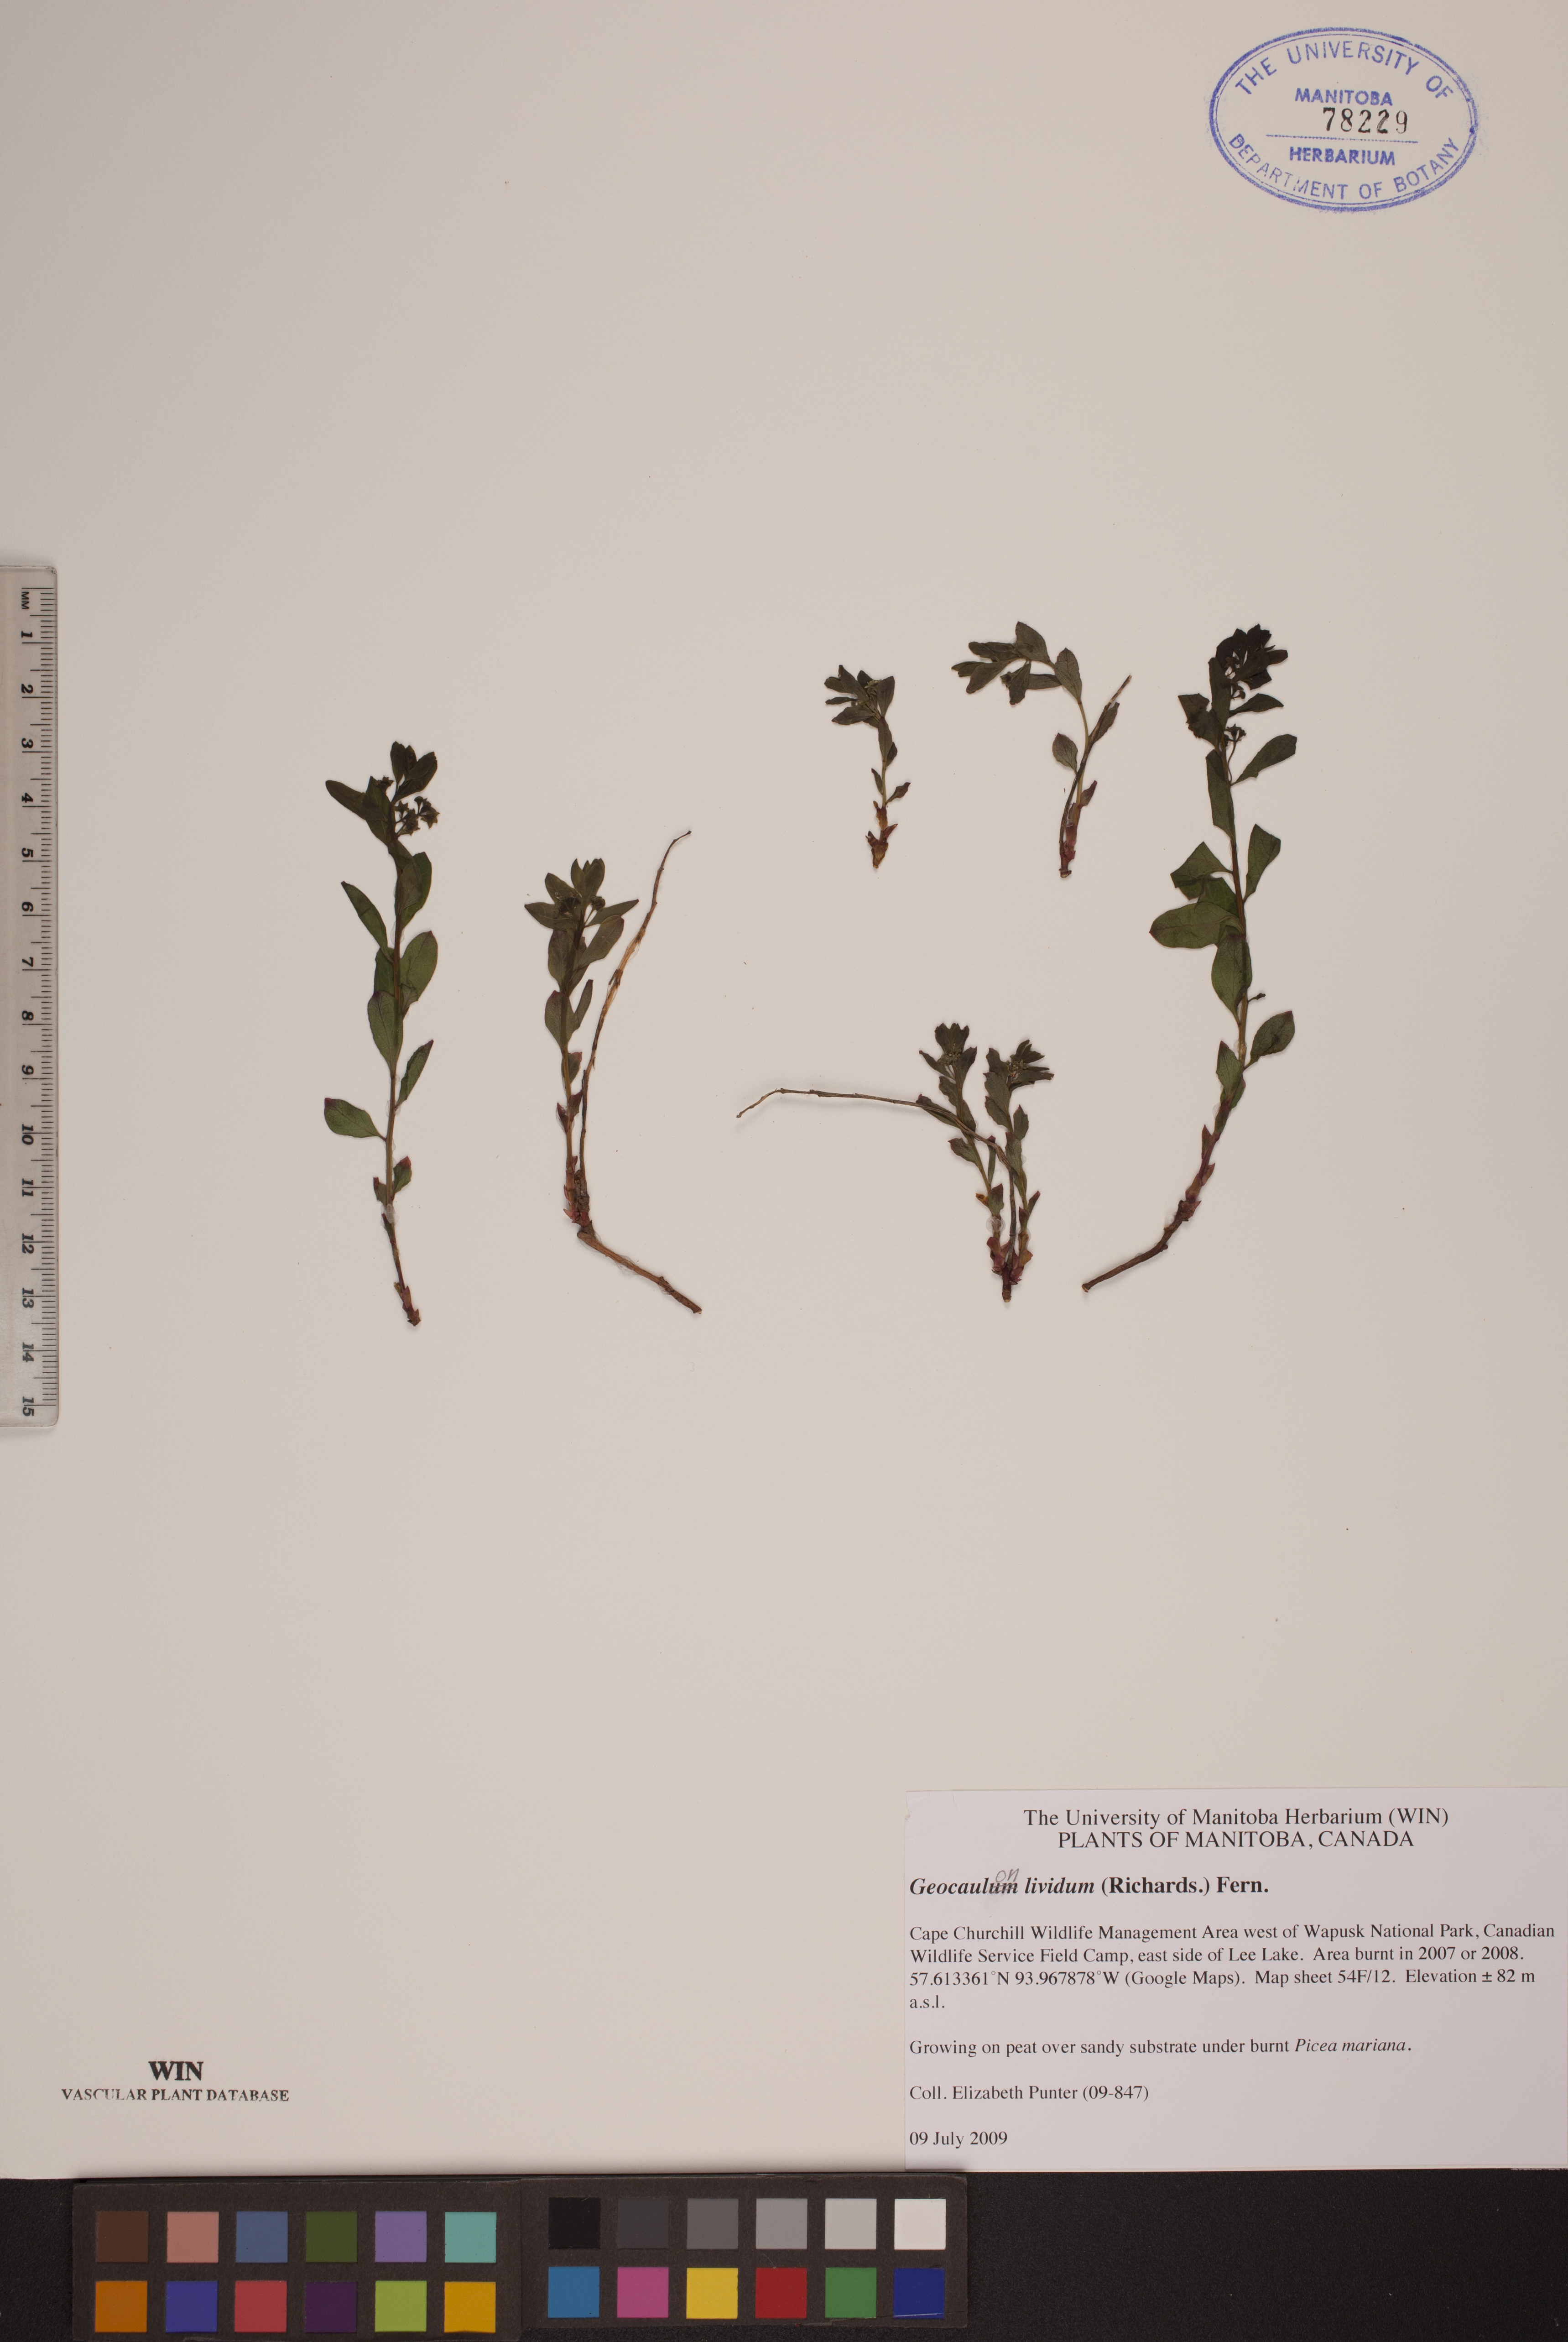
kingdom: Plantae
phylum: Tracheophyta
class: Magnoliopsida
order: Santalales
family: Comandraceae
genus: Geocaulon
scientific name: Geocaulon lividum
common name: Earthberry
